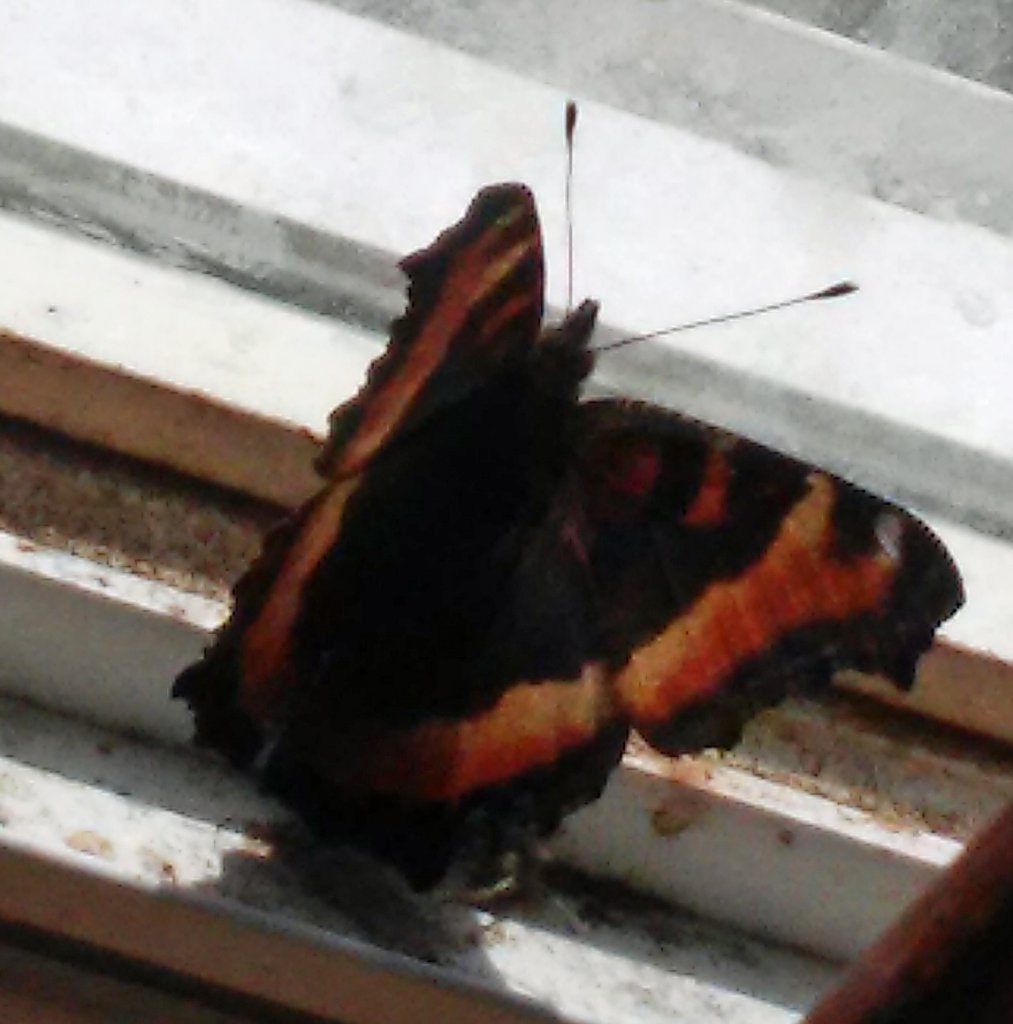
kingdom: Animalia
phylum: Arthropoda
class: Insecta
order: Lepidoptera
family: Nymphalidae
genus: Aglais
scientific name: Aglais milberti
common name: Milbert's Tortoiseshell
